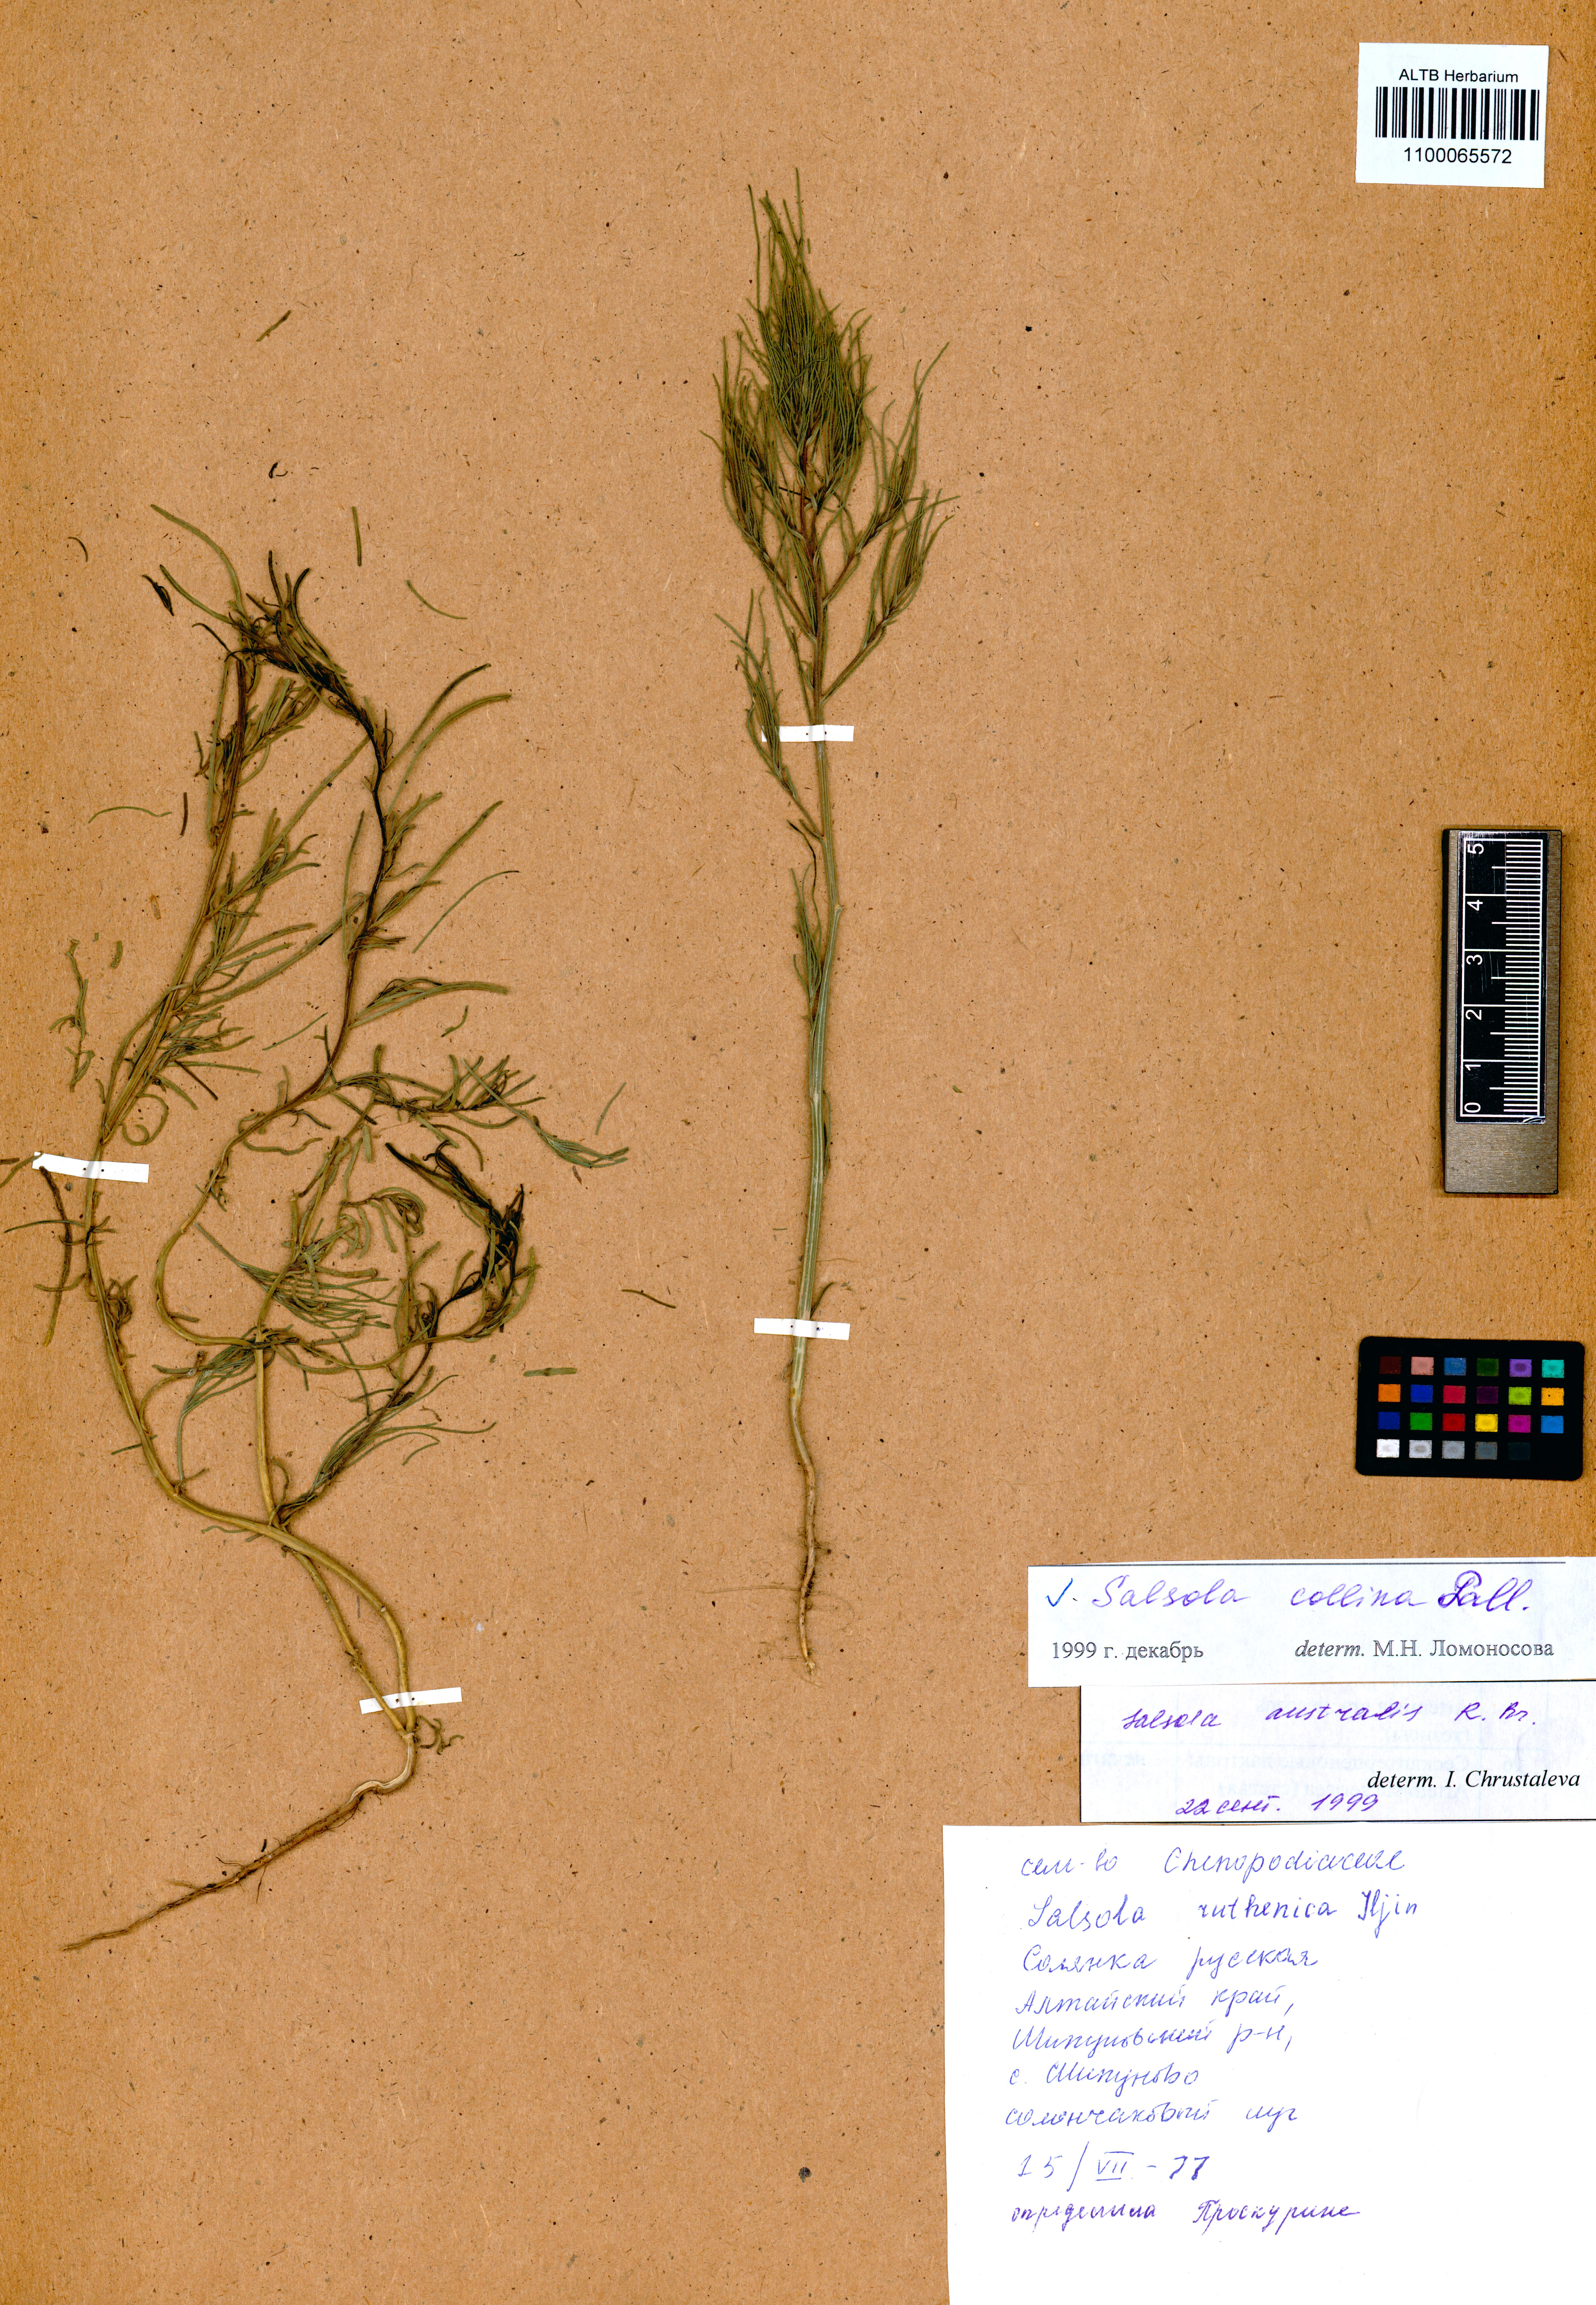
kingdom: Plantae
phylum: Tracheophyta
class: Magnoliopsida
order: Caryophyllales
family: Amaranthaceae
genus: Salsola
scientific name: Salsola collina
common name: Tumbleweed
